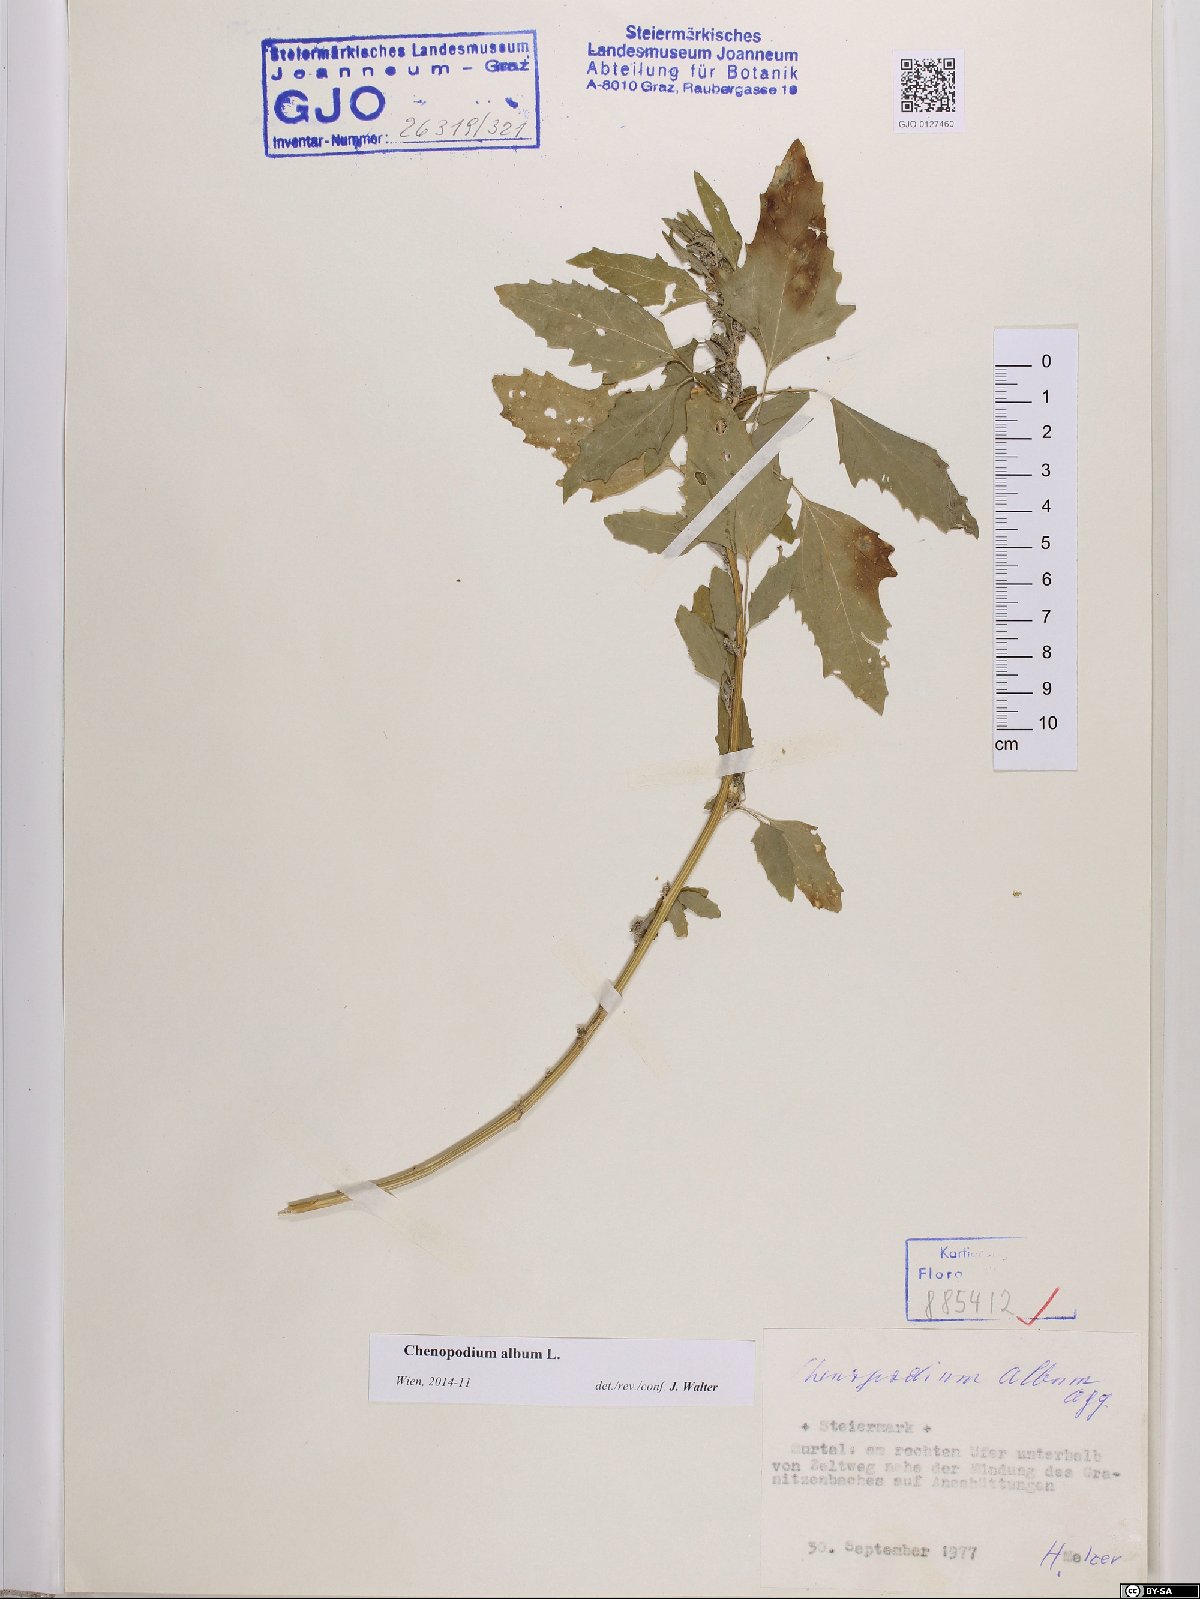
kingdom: Plantae
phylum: Tracheophyta
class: Magnoliopsida
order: Caryophyllales
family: Amaranthaceae
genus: Chenopodium
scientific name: Chenopodium album
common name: Fat-hen
